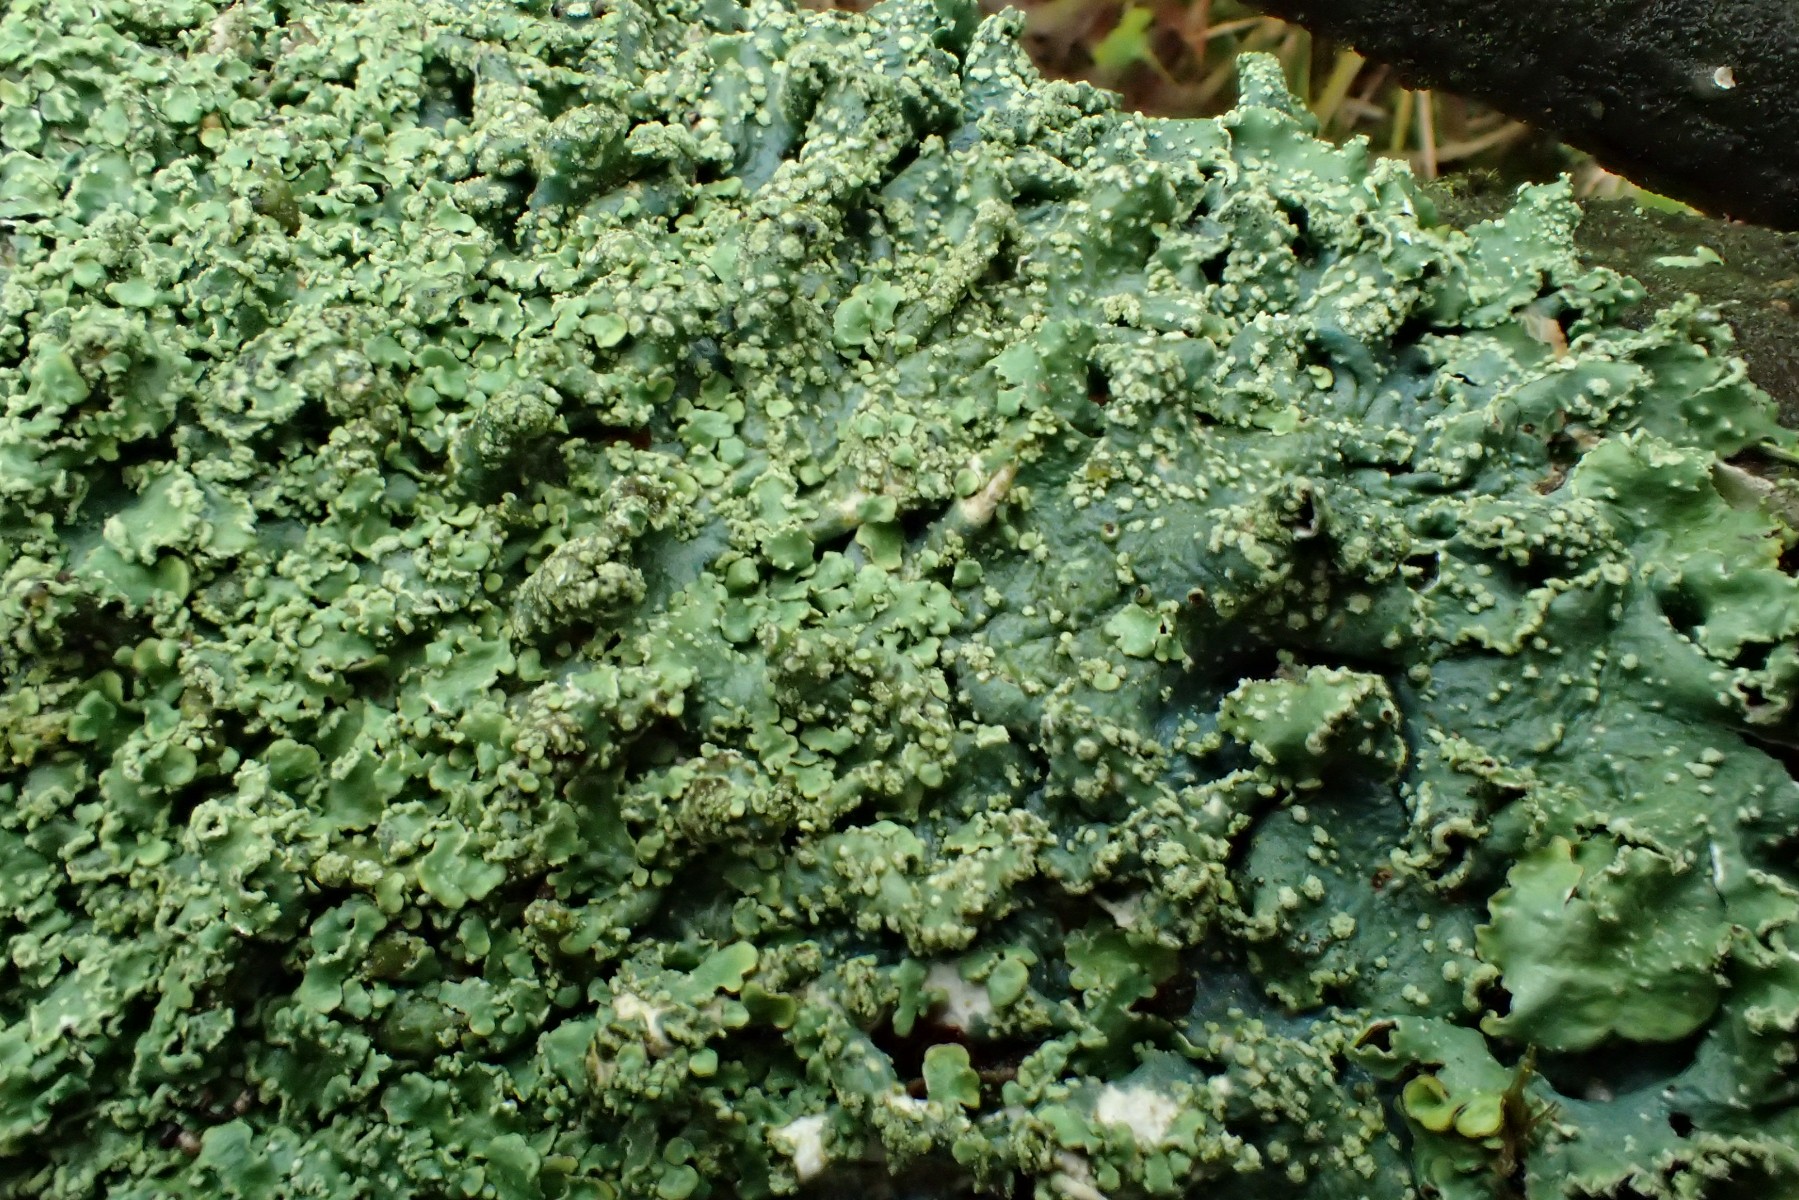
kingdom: Fungi
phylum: Ascomycota
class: Lecanoromycetes
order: Lecanorales
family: Parmeliaceae
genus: Punctelia
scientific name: Punctelia subrudecta
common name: punkt-skållav
